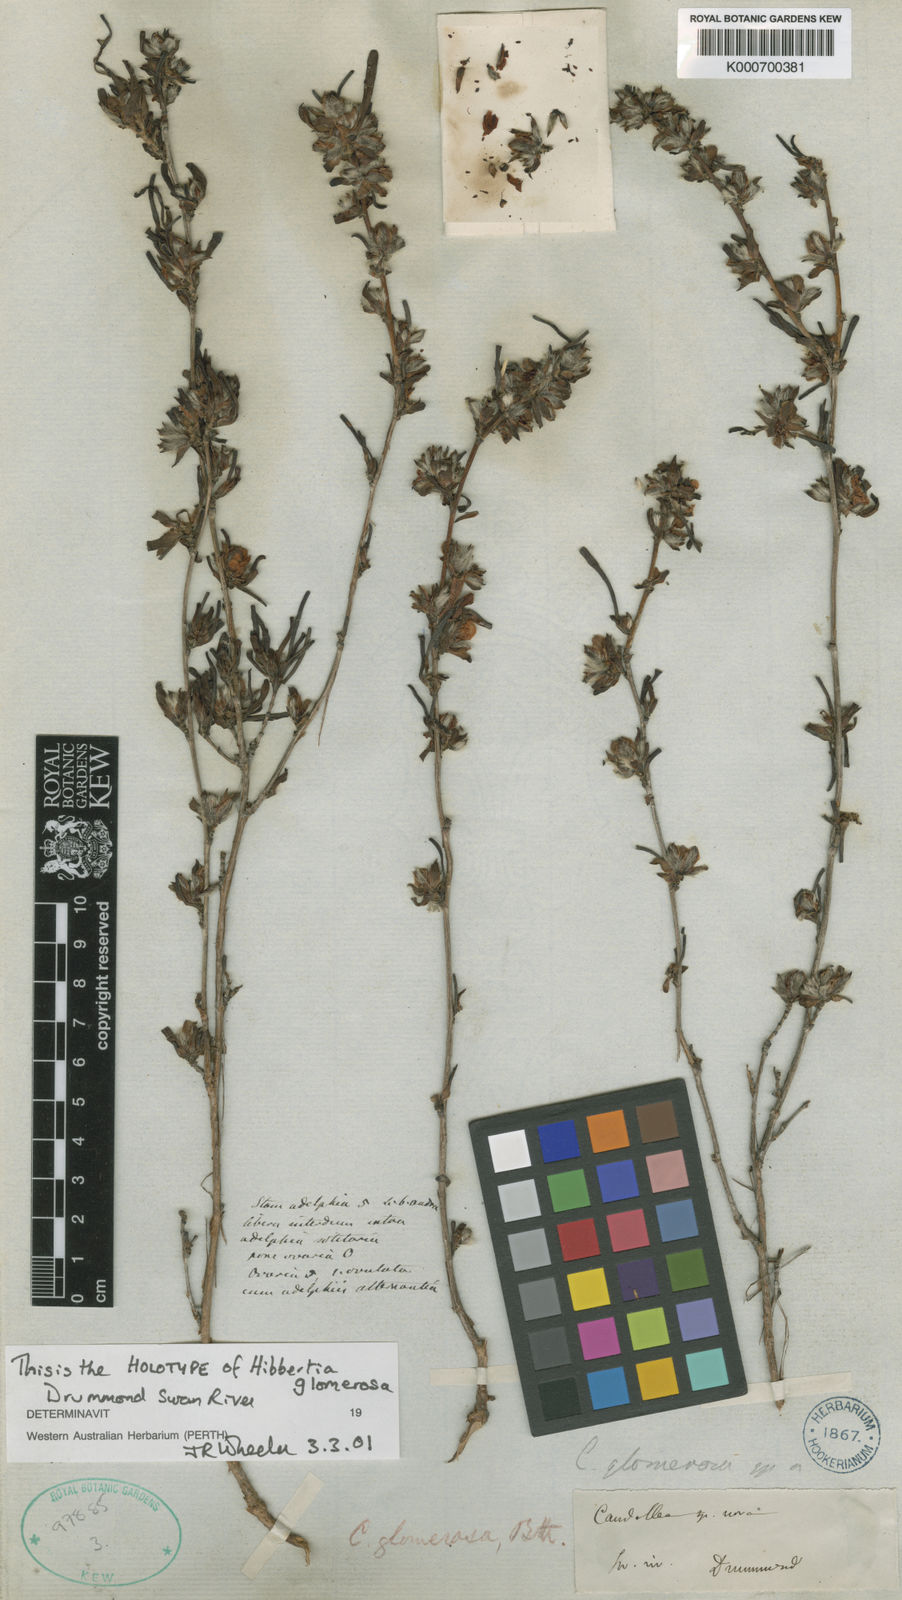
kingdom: Plantae
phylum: Tracheophyta
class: Magnoliopsida
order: Dilleniales
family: Dilleniaceae
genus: Hibbertia
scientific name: Hibbertia glomerosa
